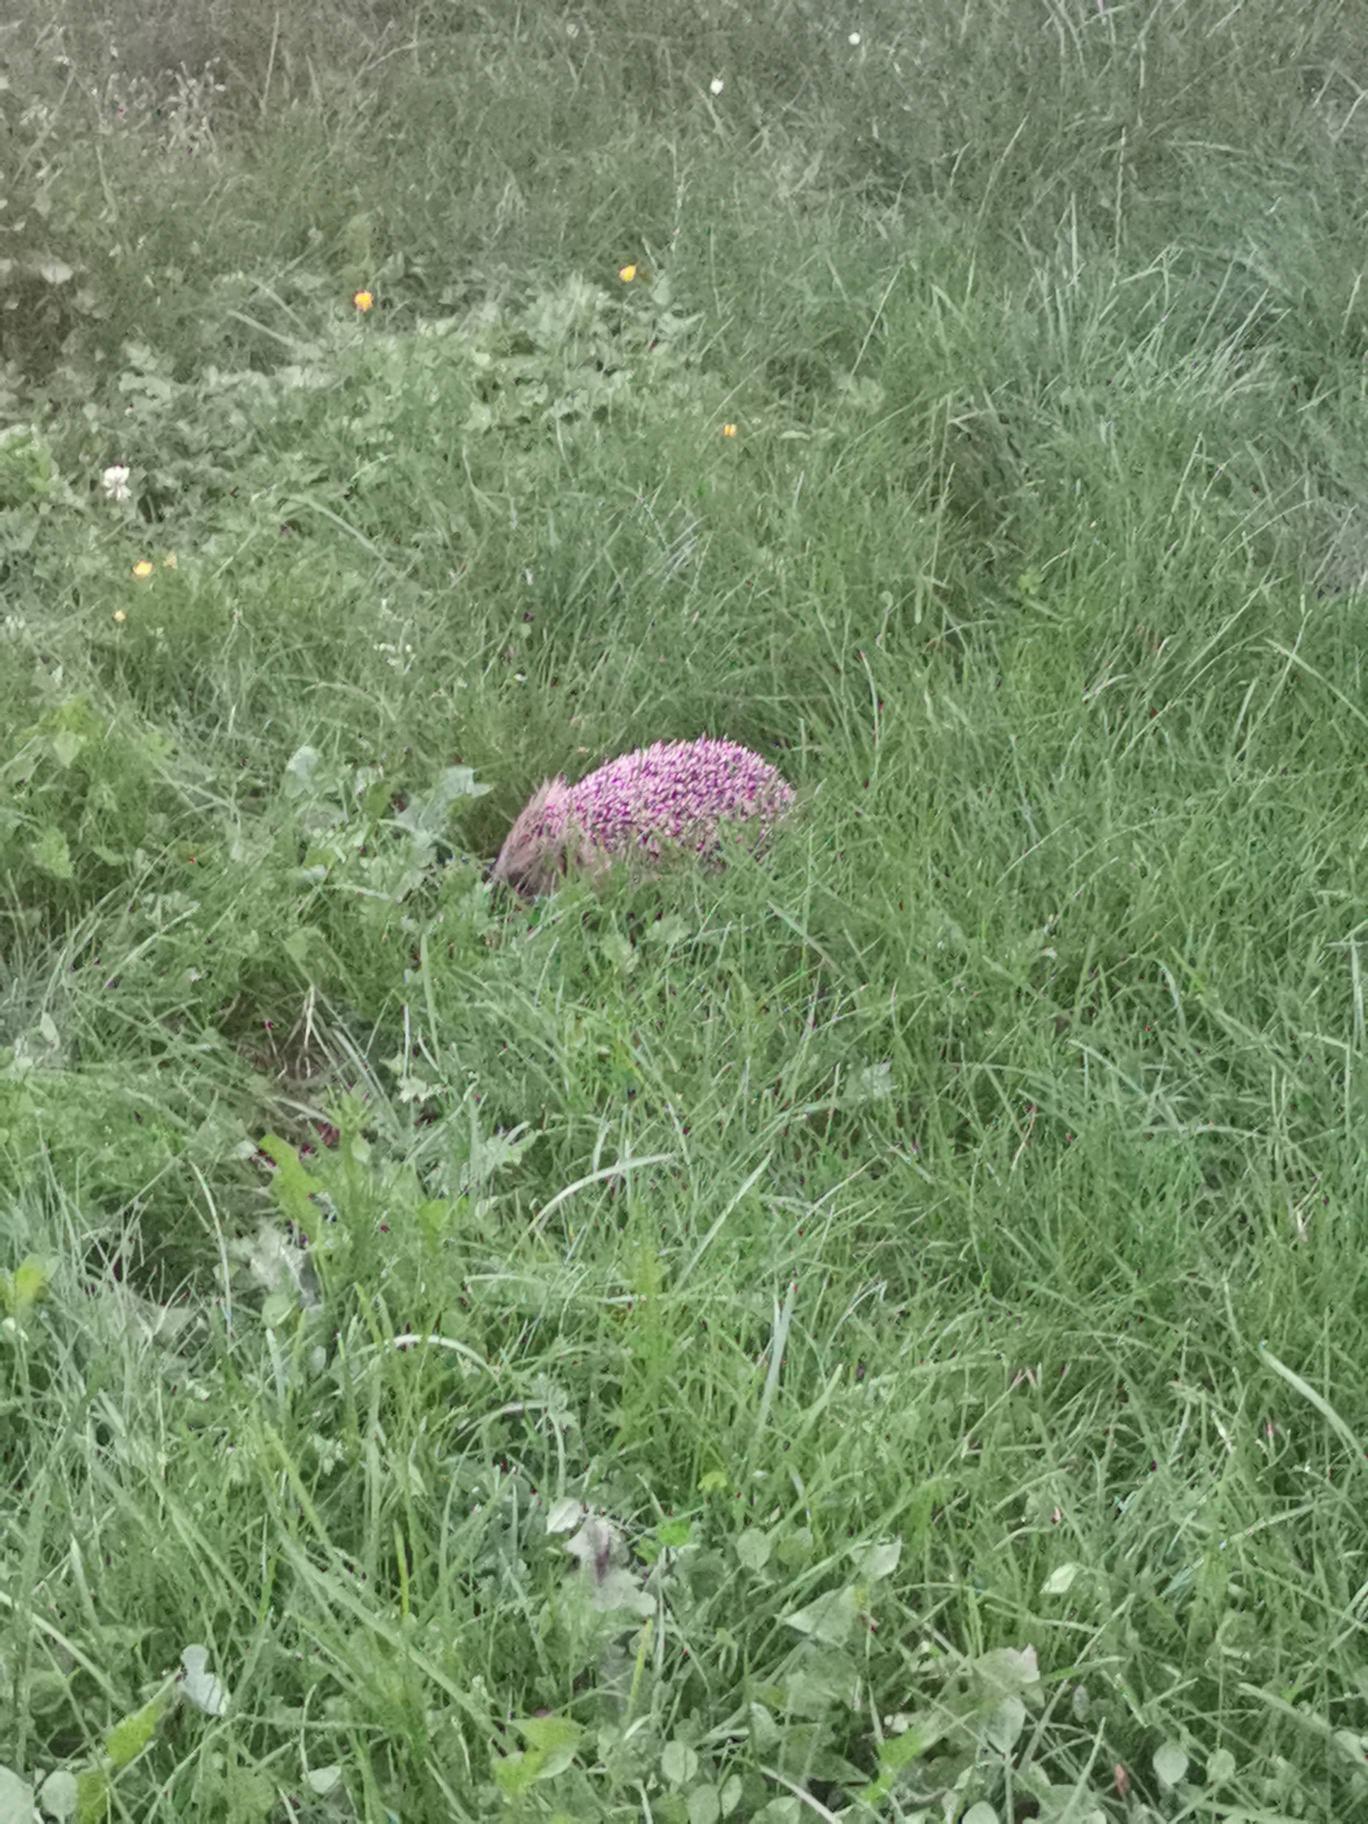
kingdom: Animalia
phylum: Chordata
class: Mammalia
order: Erinaceomorpha
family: Erinaceidae
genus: Erinaceus
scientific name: Erinaceus europaeus
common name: Pindsvin
